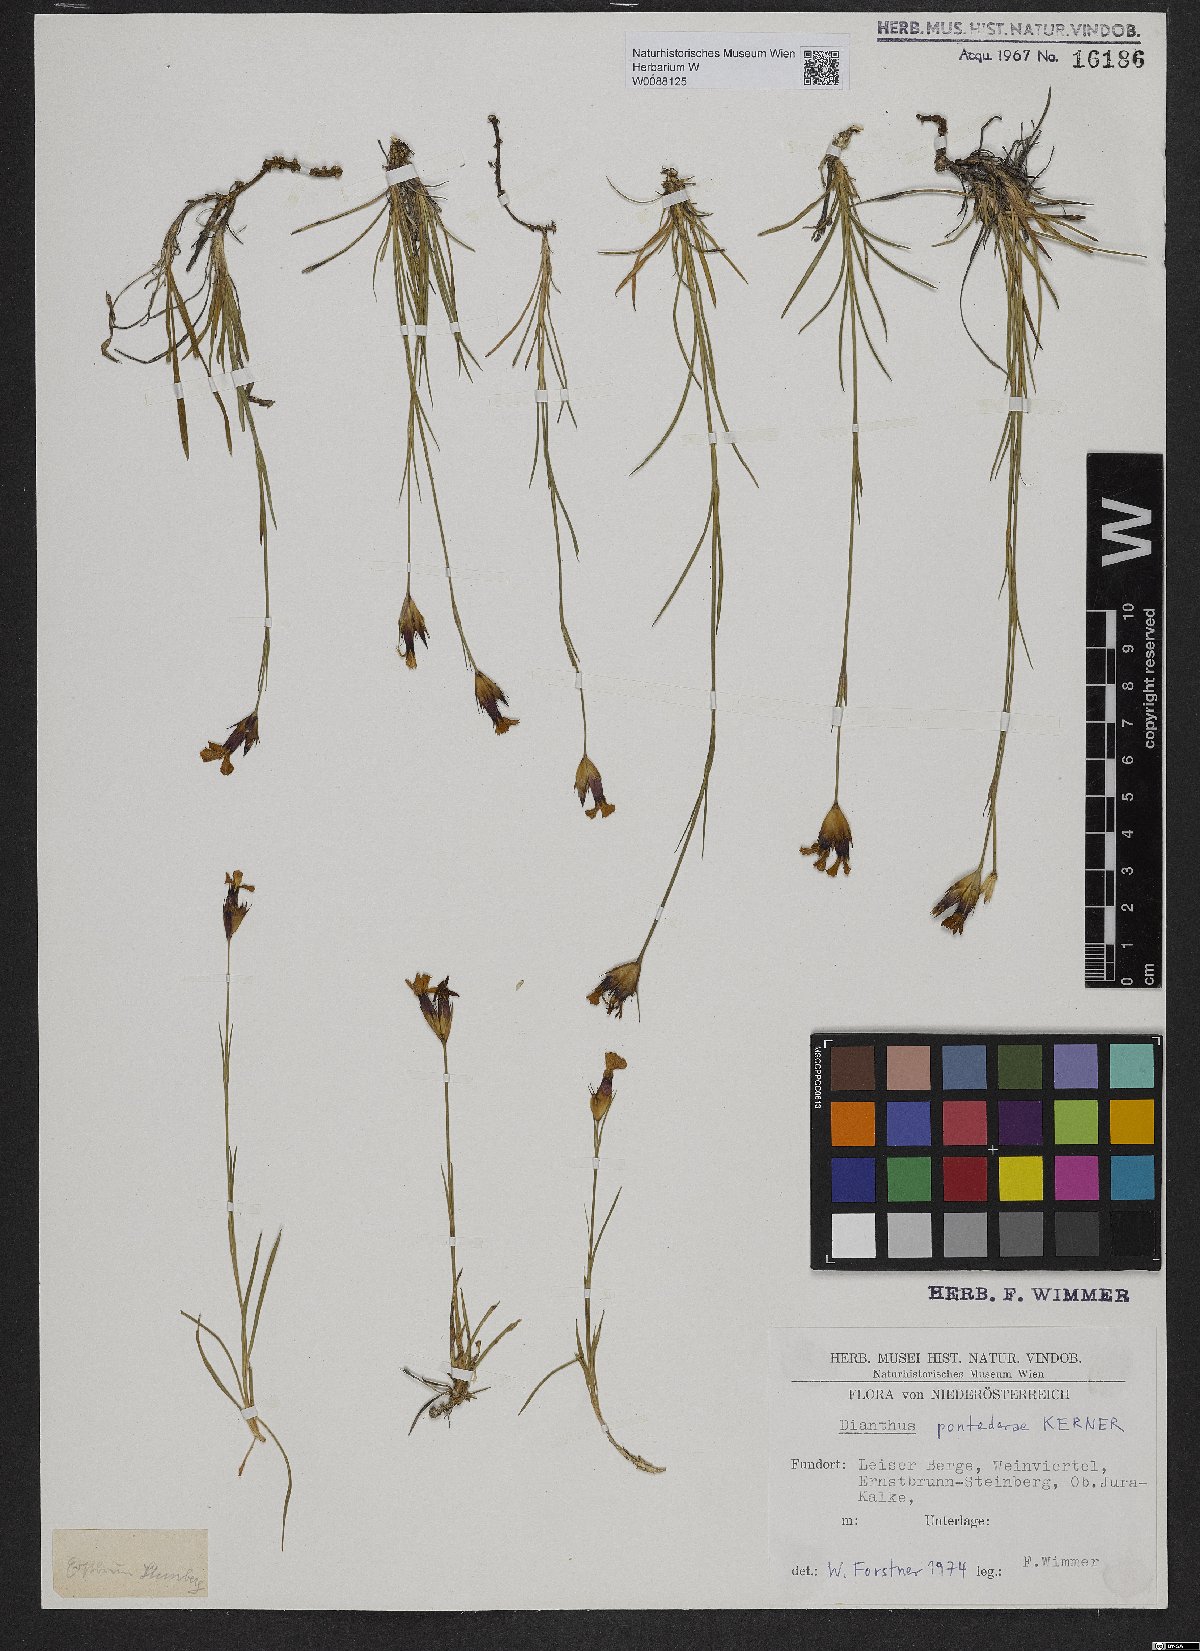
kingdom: Plantae
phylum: Tracheophyta
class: Magnoliopsida
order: Caryophyllales
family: Caryophyllaceae
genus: Dianthus
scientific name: Dianthus pontederae
